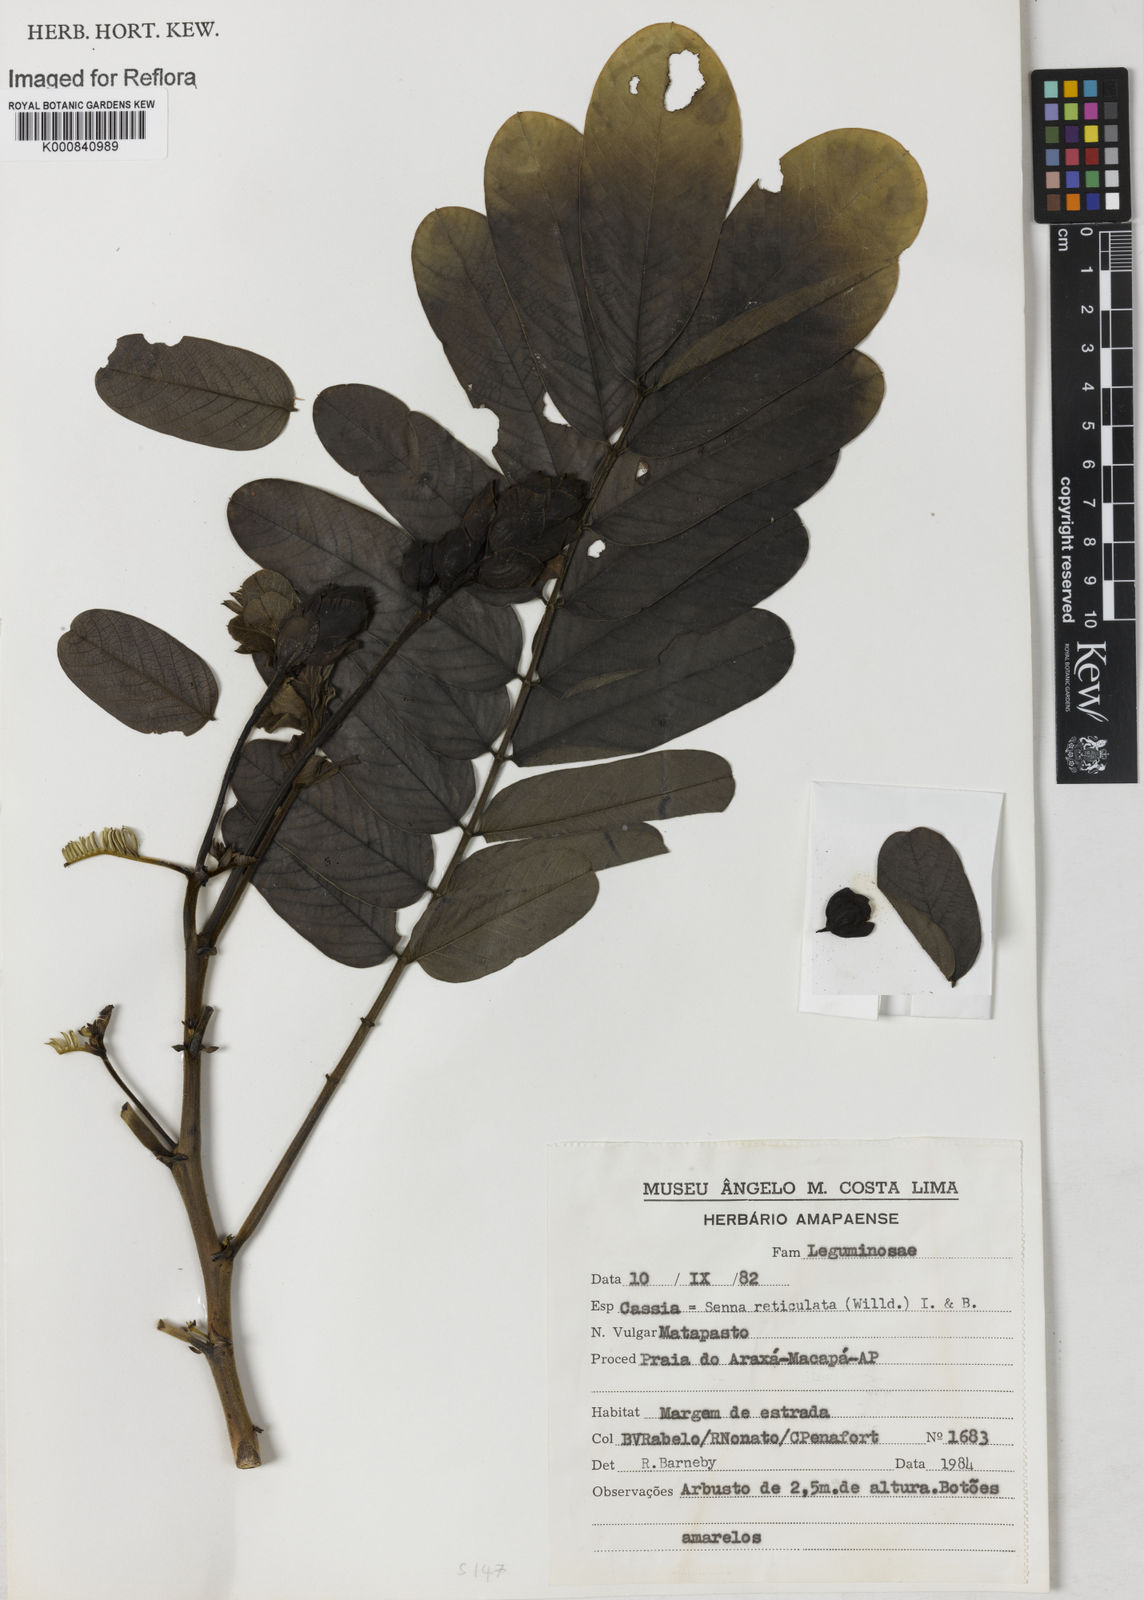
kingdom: Plantae
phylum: Tracheophyta
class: Magnoliopsida
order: Fabales
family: Fabaceae
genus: Senna
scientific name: Senna reticulata
